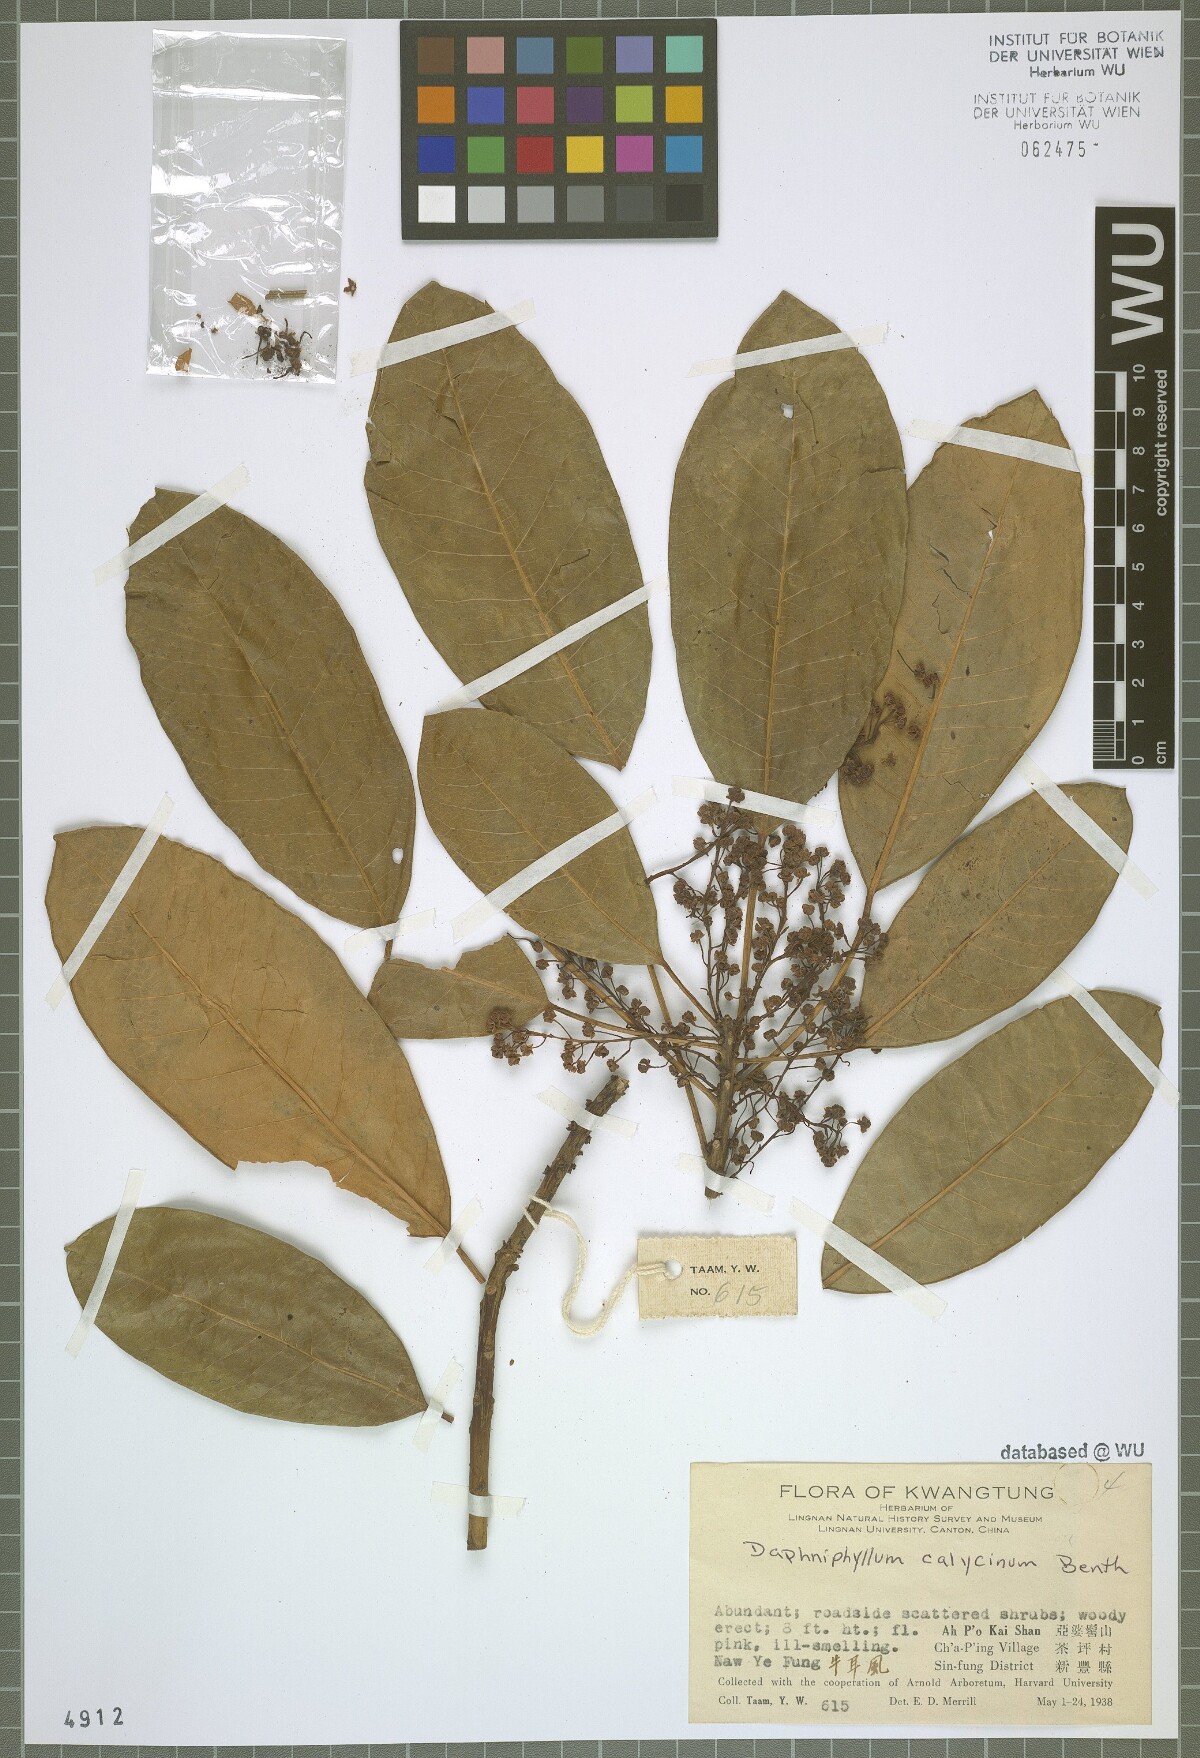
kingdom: Plantae
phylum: Tracheophyta
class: Magnoliopsida
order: Saxifragales
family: Daphniphyllaceae
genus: Daphniphyllum
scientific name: Daphniphyllum calycinum
